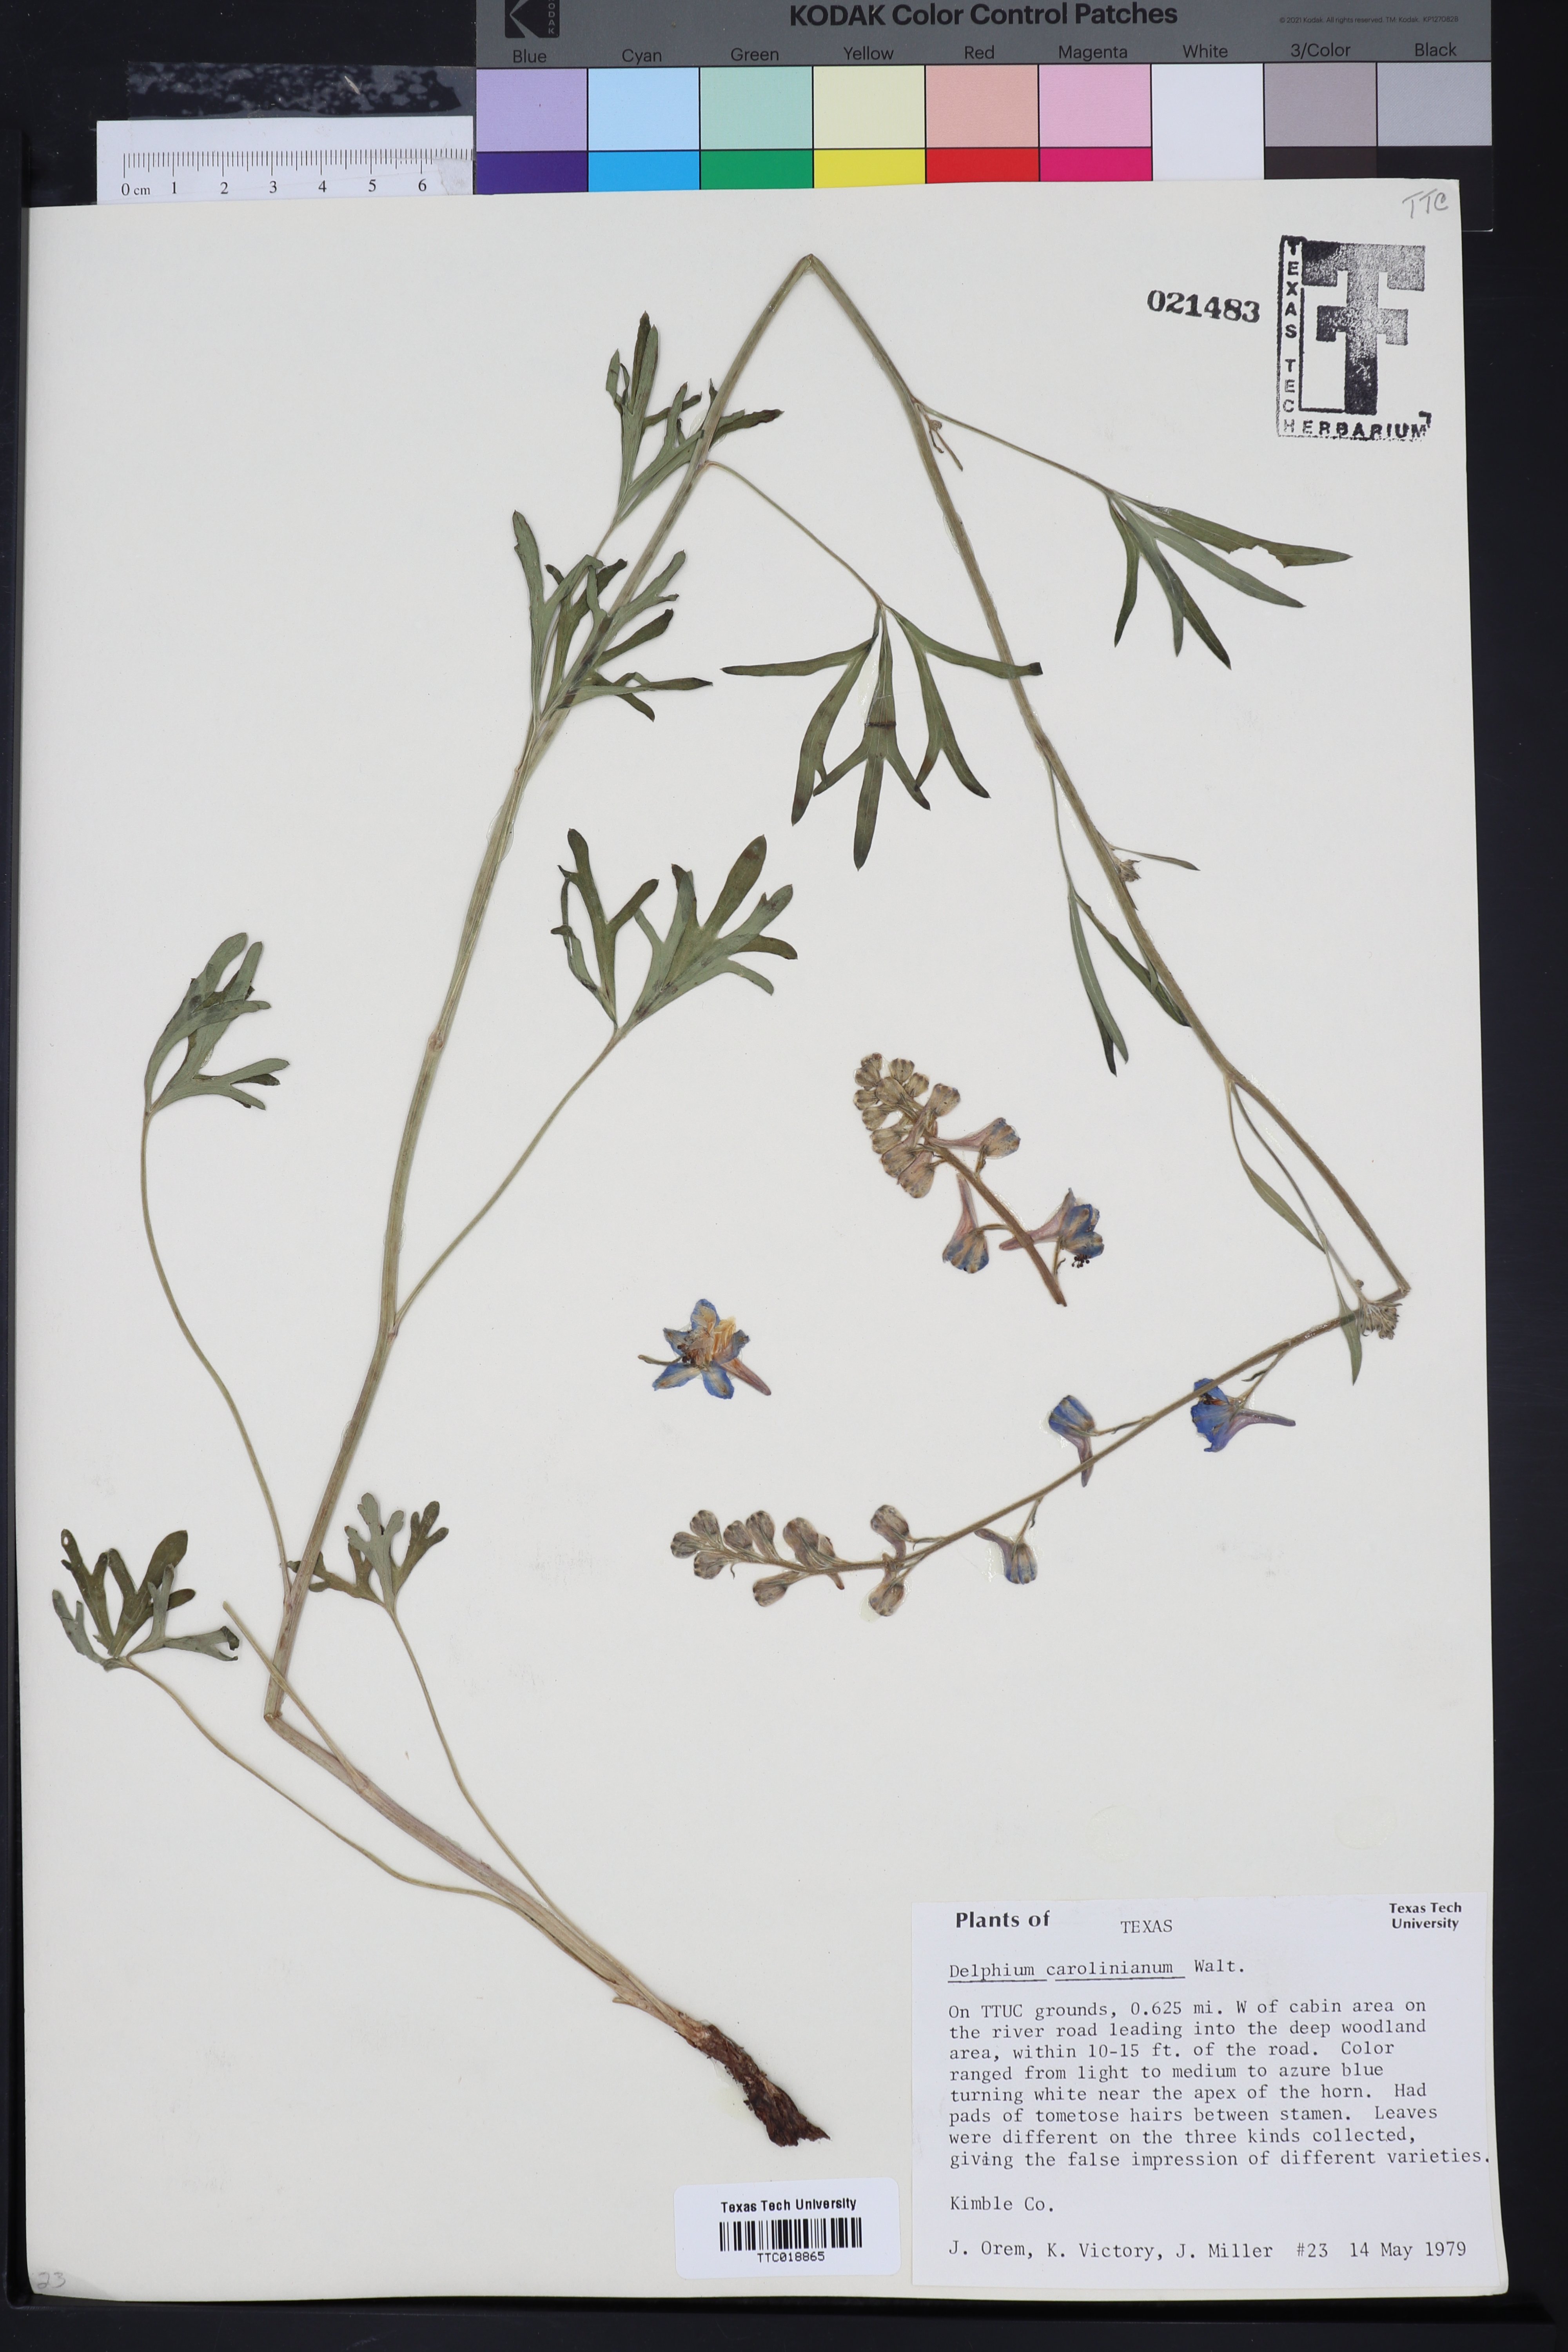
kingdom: Plantae
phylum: Tracheophyta
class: Magnoliopsida
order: Ranunculales
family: Ranunculaceae
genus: Delphinium
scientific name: Delphinium carolinianum
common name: Carolina larkspur
